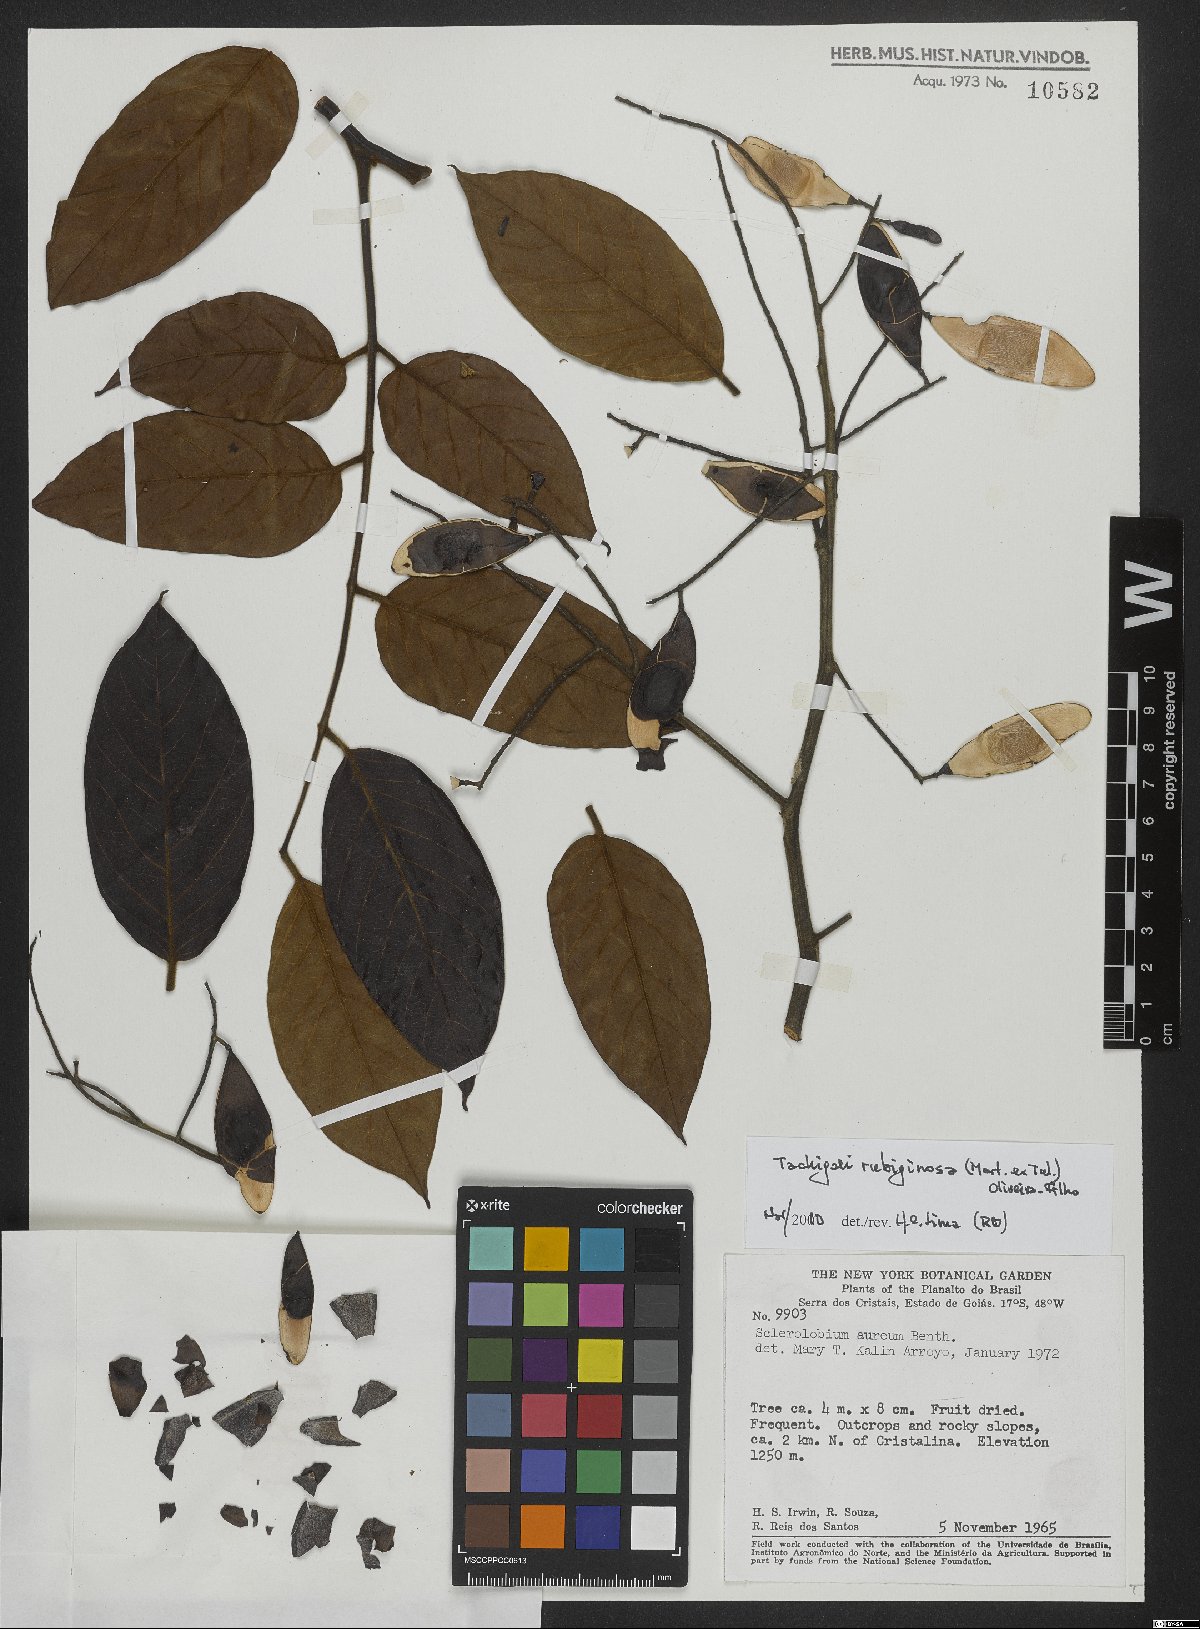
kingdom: Plantae
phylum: Tracheophyta
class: Magnoliopsida
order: Fabales
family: Fabaceae
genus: Tachigali
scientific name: Tachigali rubiginosa
